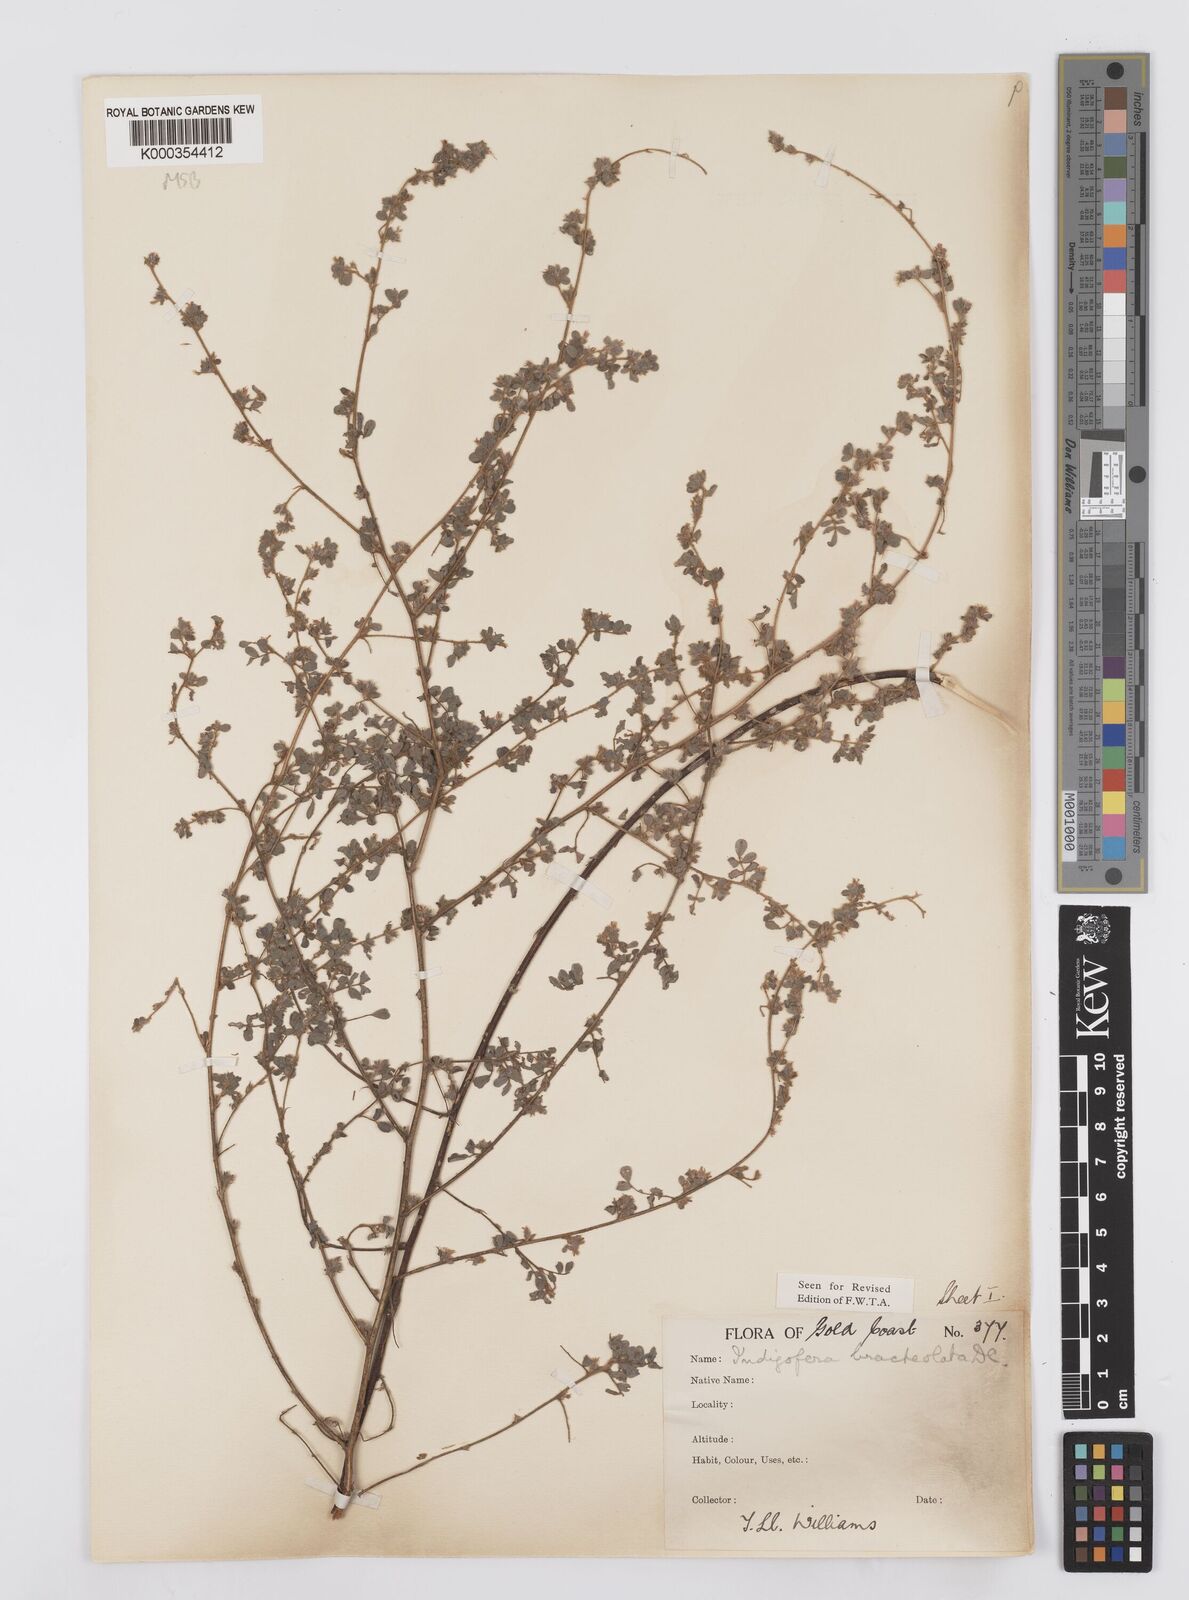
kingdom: Plantae
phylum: Tracheophyta
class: Magnoliopsida
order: Fabales
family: Fabaceae
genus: Indigofera
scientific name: Indigofera bracteolata
